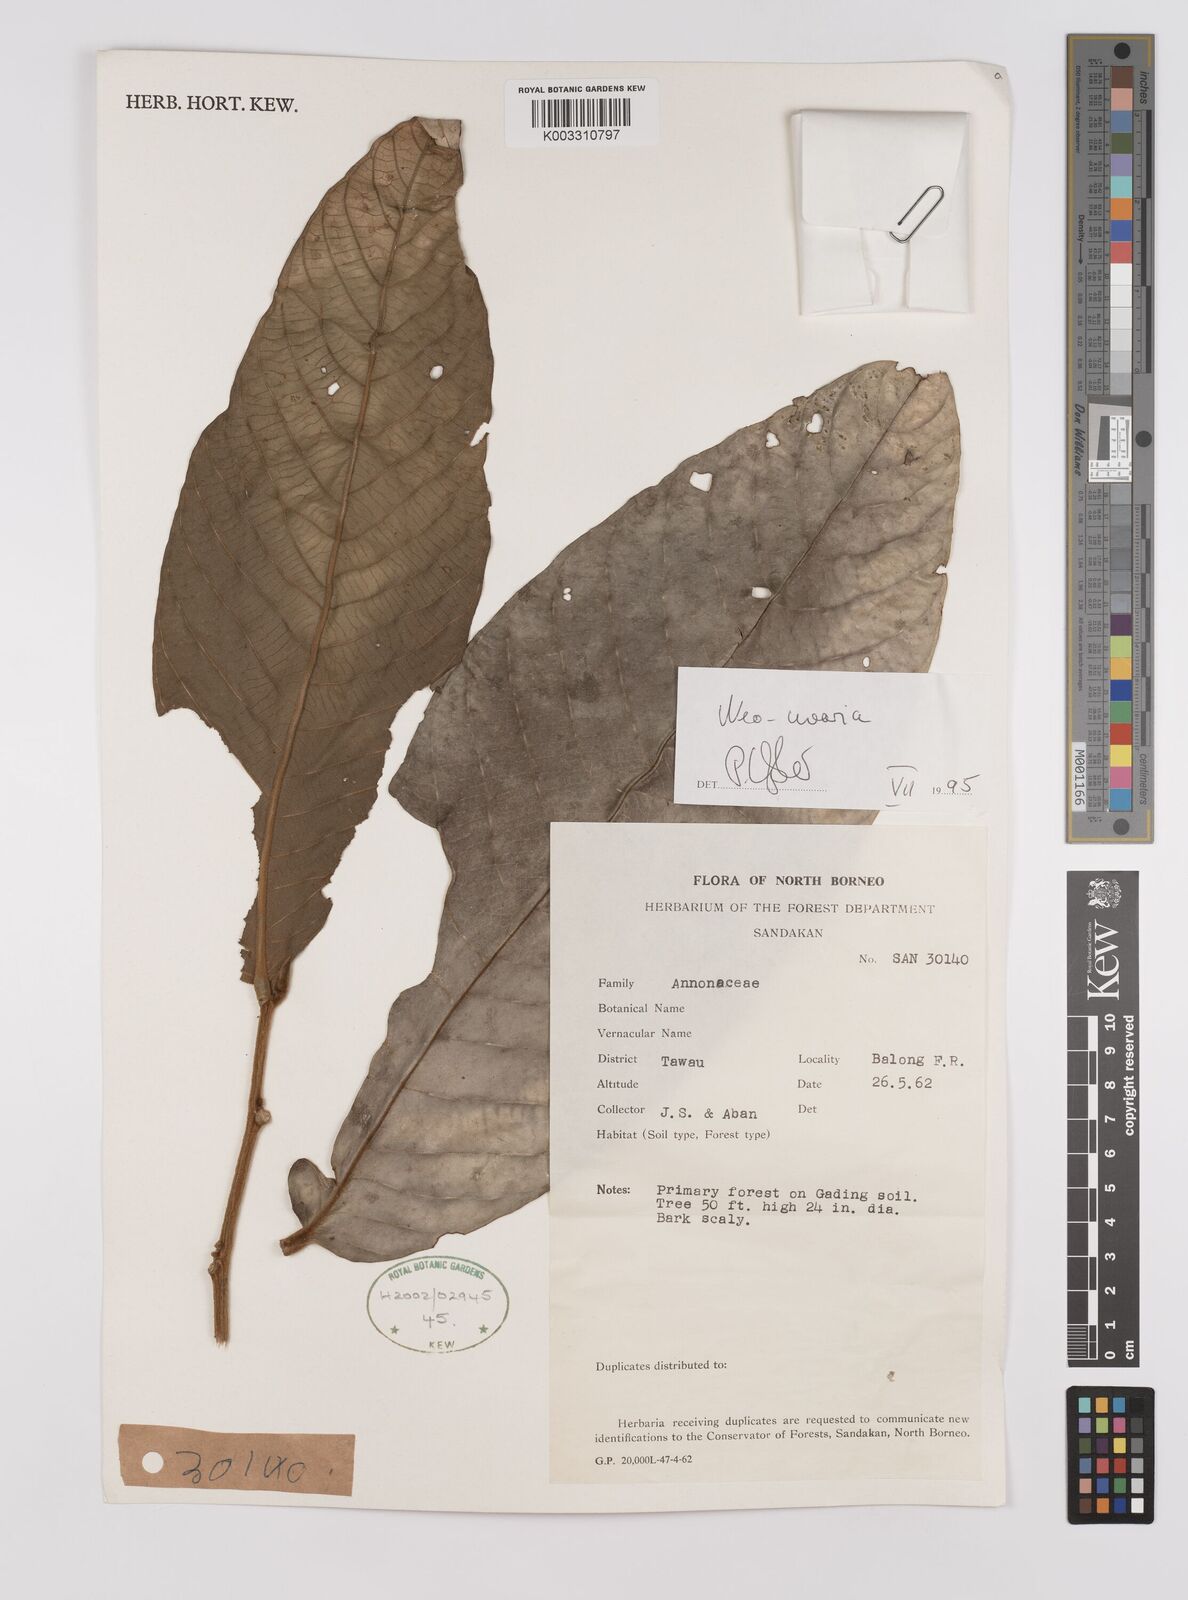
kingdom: Plantae
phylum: Tracheophyta
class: Magnoliopsida
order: Magnoliales
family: Annonaceae
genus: Neo-uvaria
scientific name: Neo-uvaria
